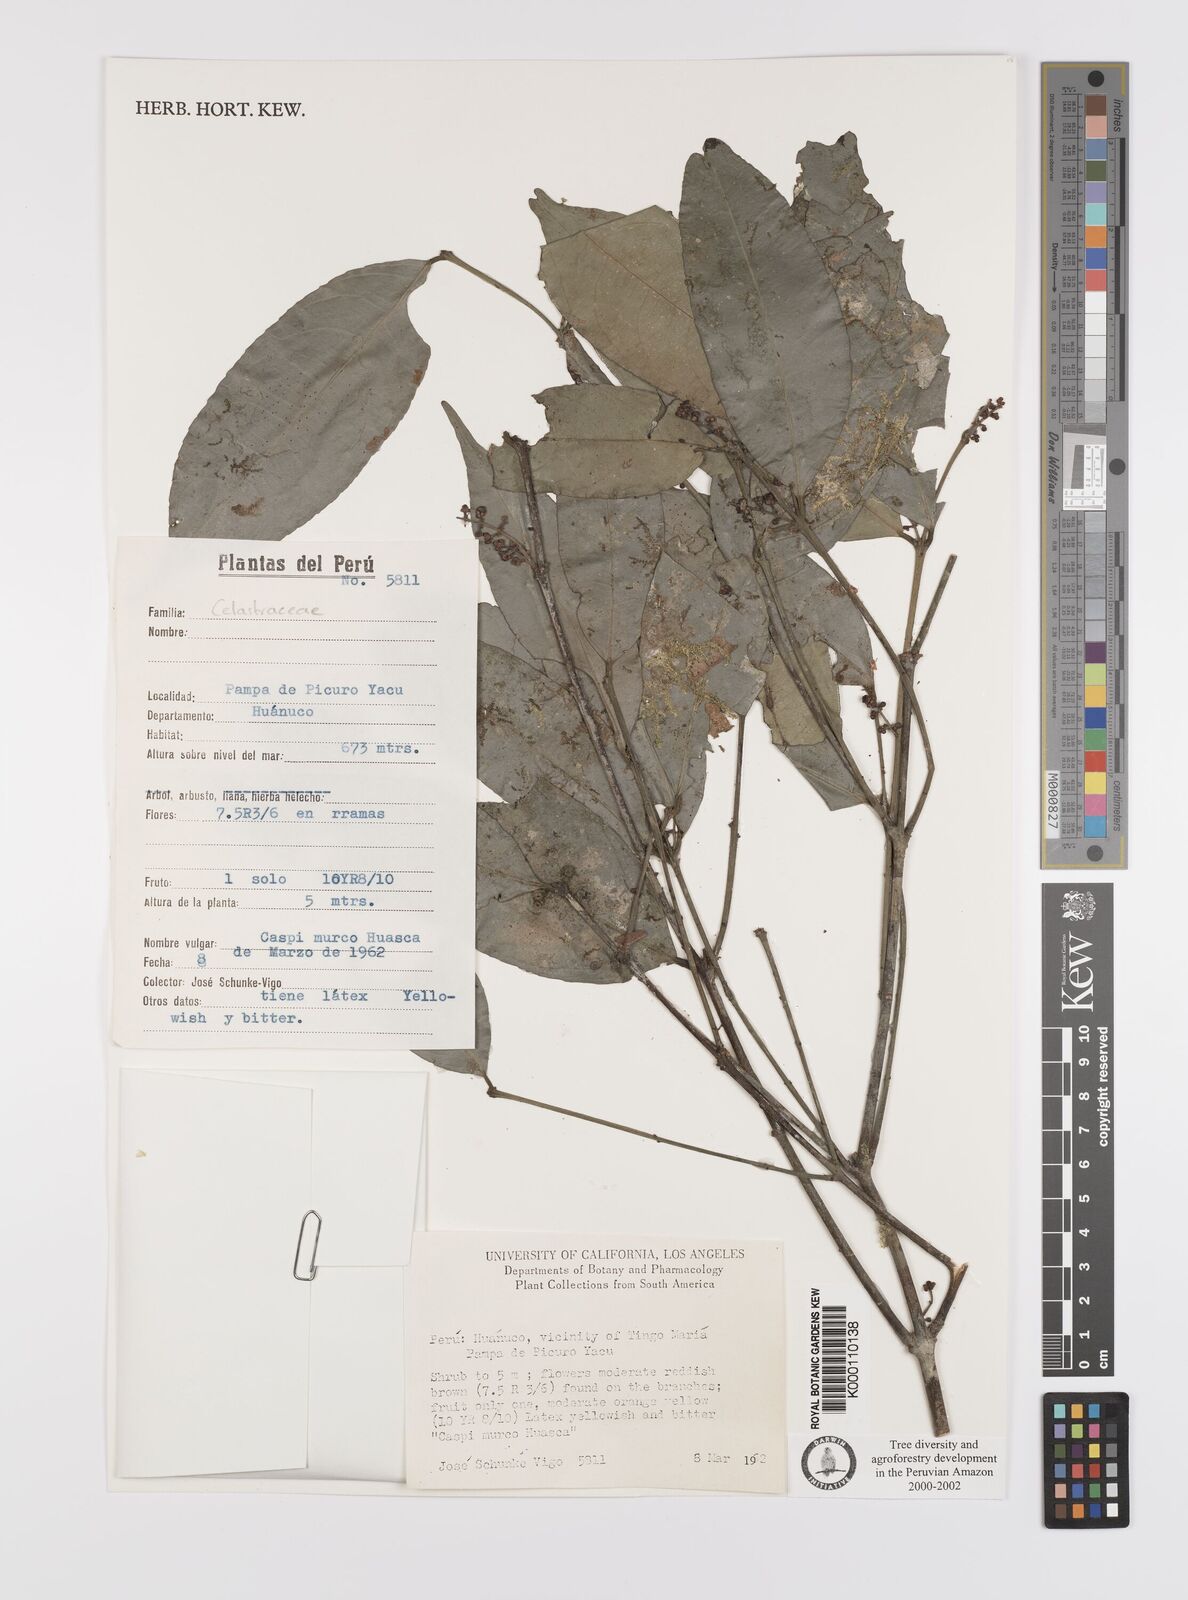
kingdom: Plantae
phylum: Tracheophyta
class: Magnoliopsida
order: Celastrales
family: Celastraceae
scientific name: Celastraceae
